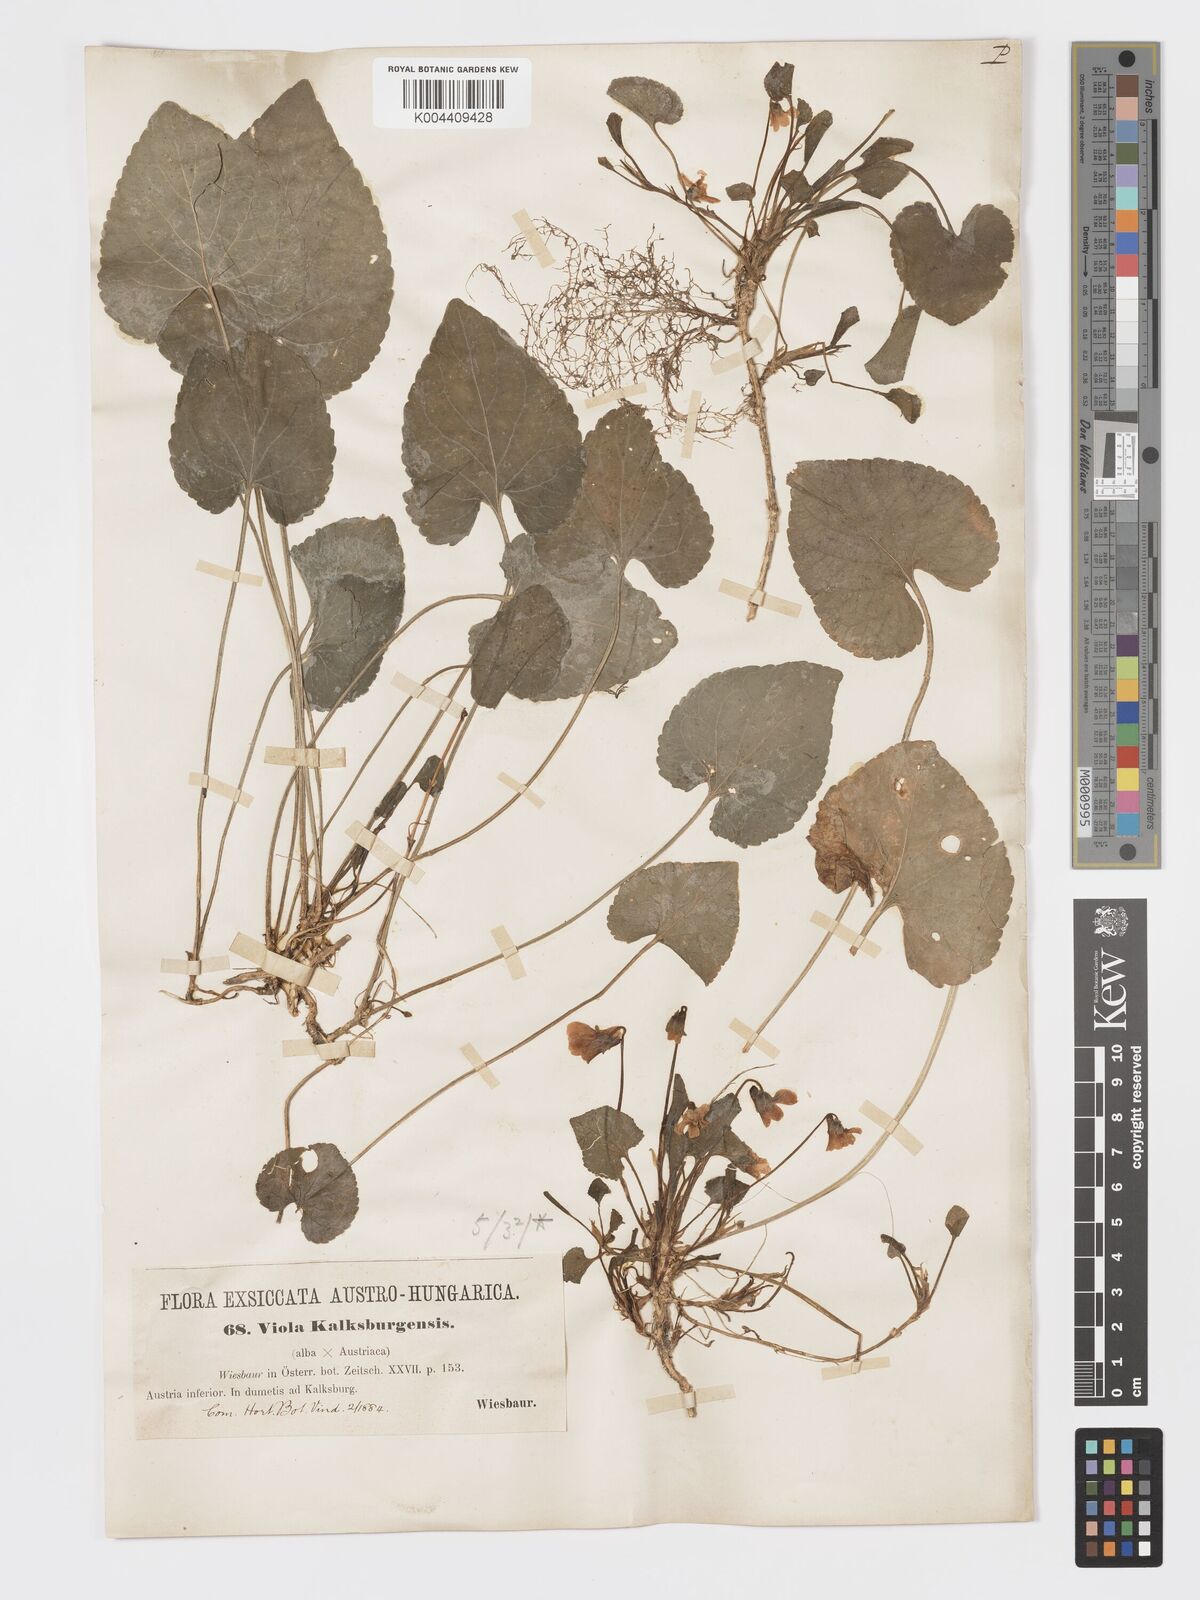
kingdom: Plantae
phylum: Tracheophyta
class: Magnoliopsida
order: Malpighiales
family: Violaceae
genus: Viola
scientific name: Viola kalksburgensis
